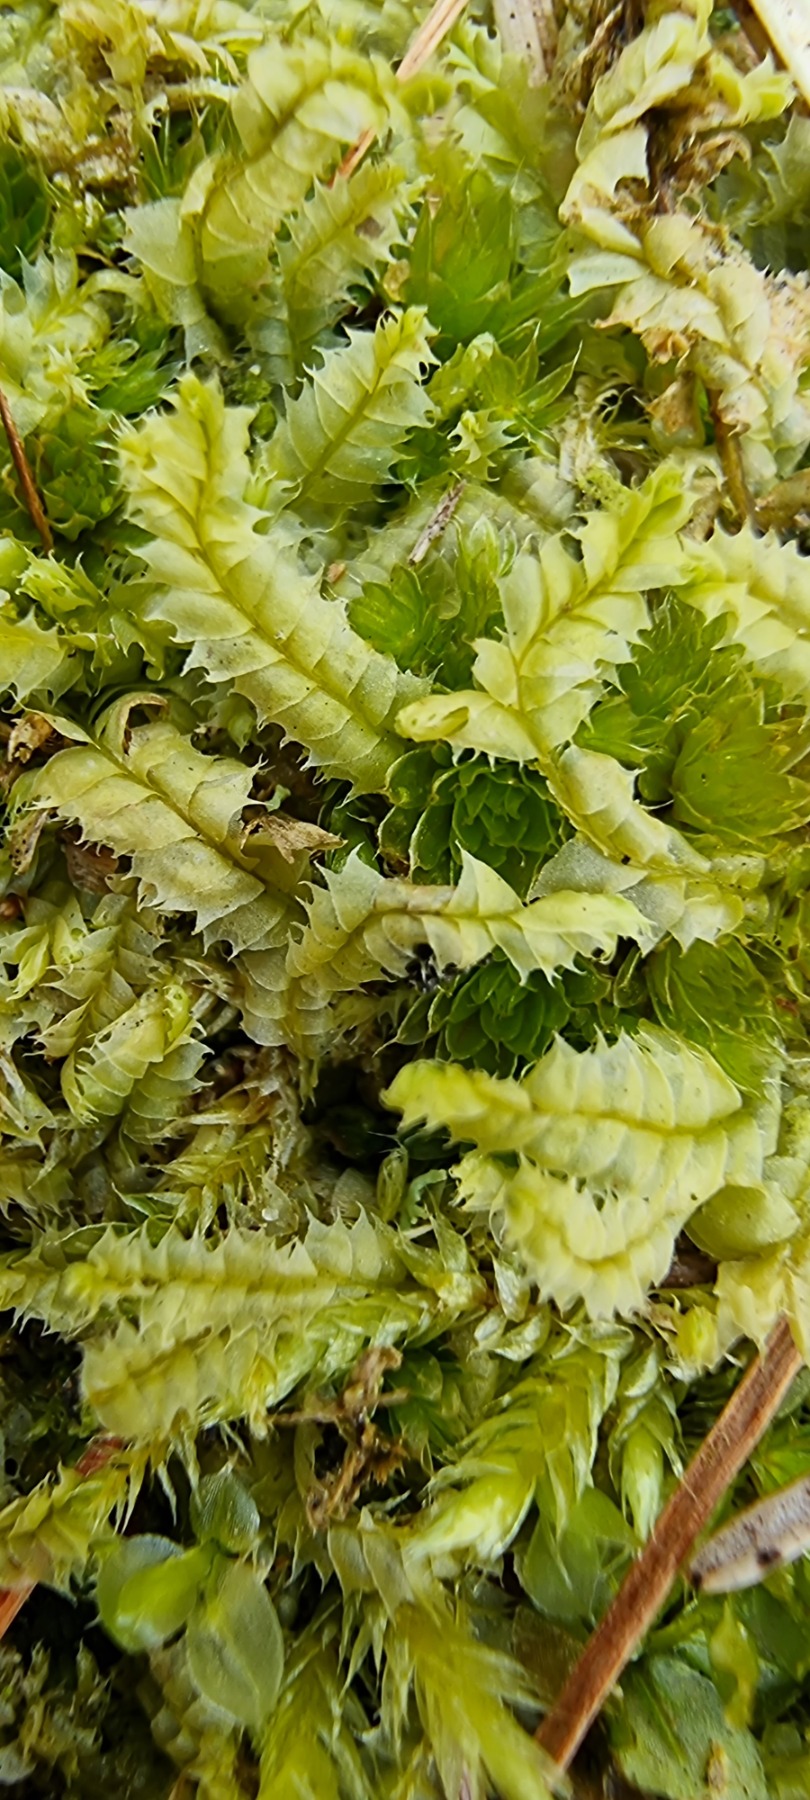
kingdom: Plantae
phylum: Marchantiophyta
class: Jungermanniopsida
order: Jungermanniales
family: Lophocoleaceae
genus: Lophocolea
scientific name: Lophocolea bidentata
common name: Sylspidset kamsvøb
